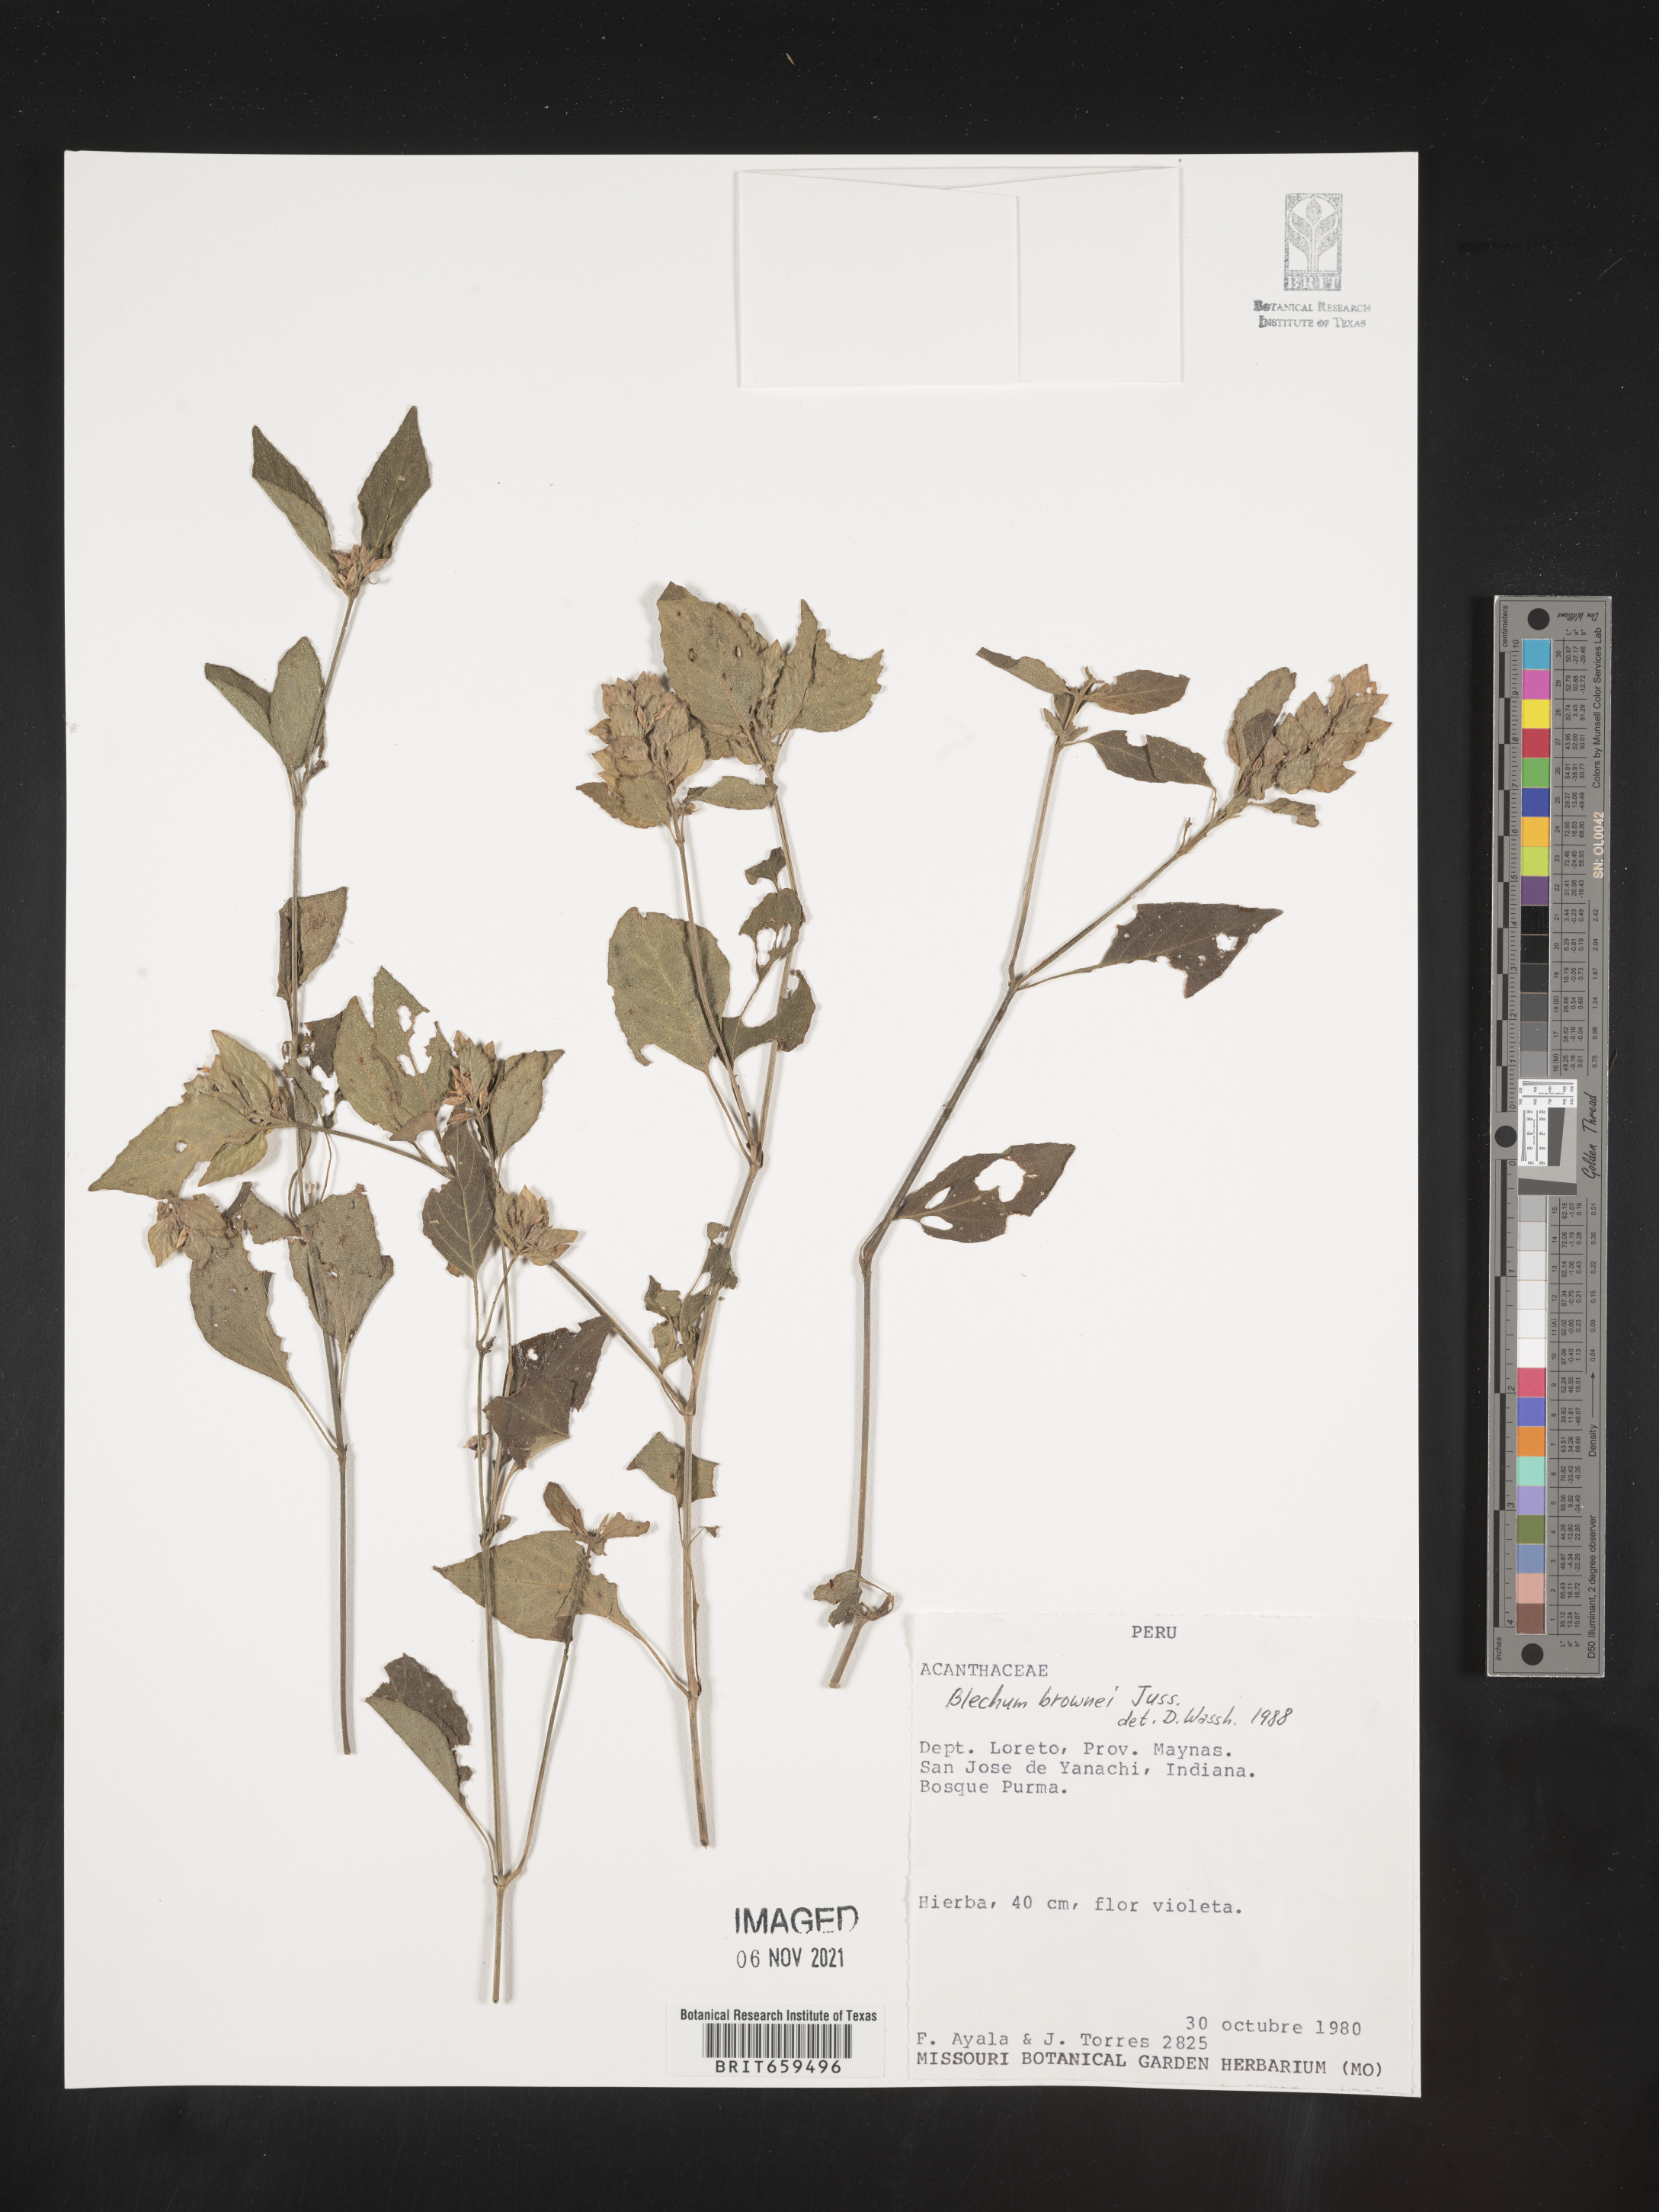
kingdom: Plantae
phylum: Tracheophyta
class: Polypodiopsida
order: Polypodiales
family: Blechnaceae
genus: Blechum
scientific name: Blechum
